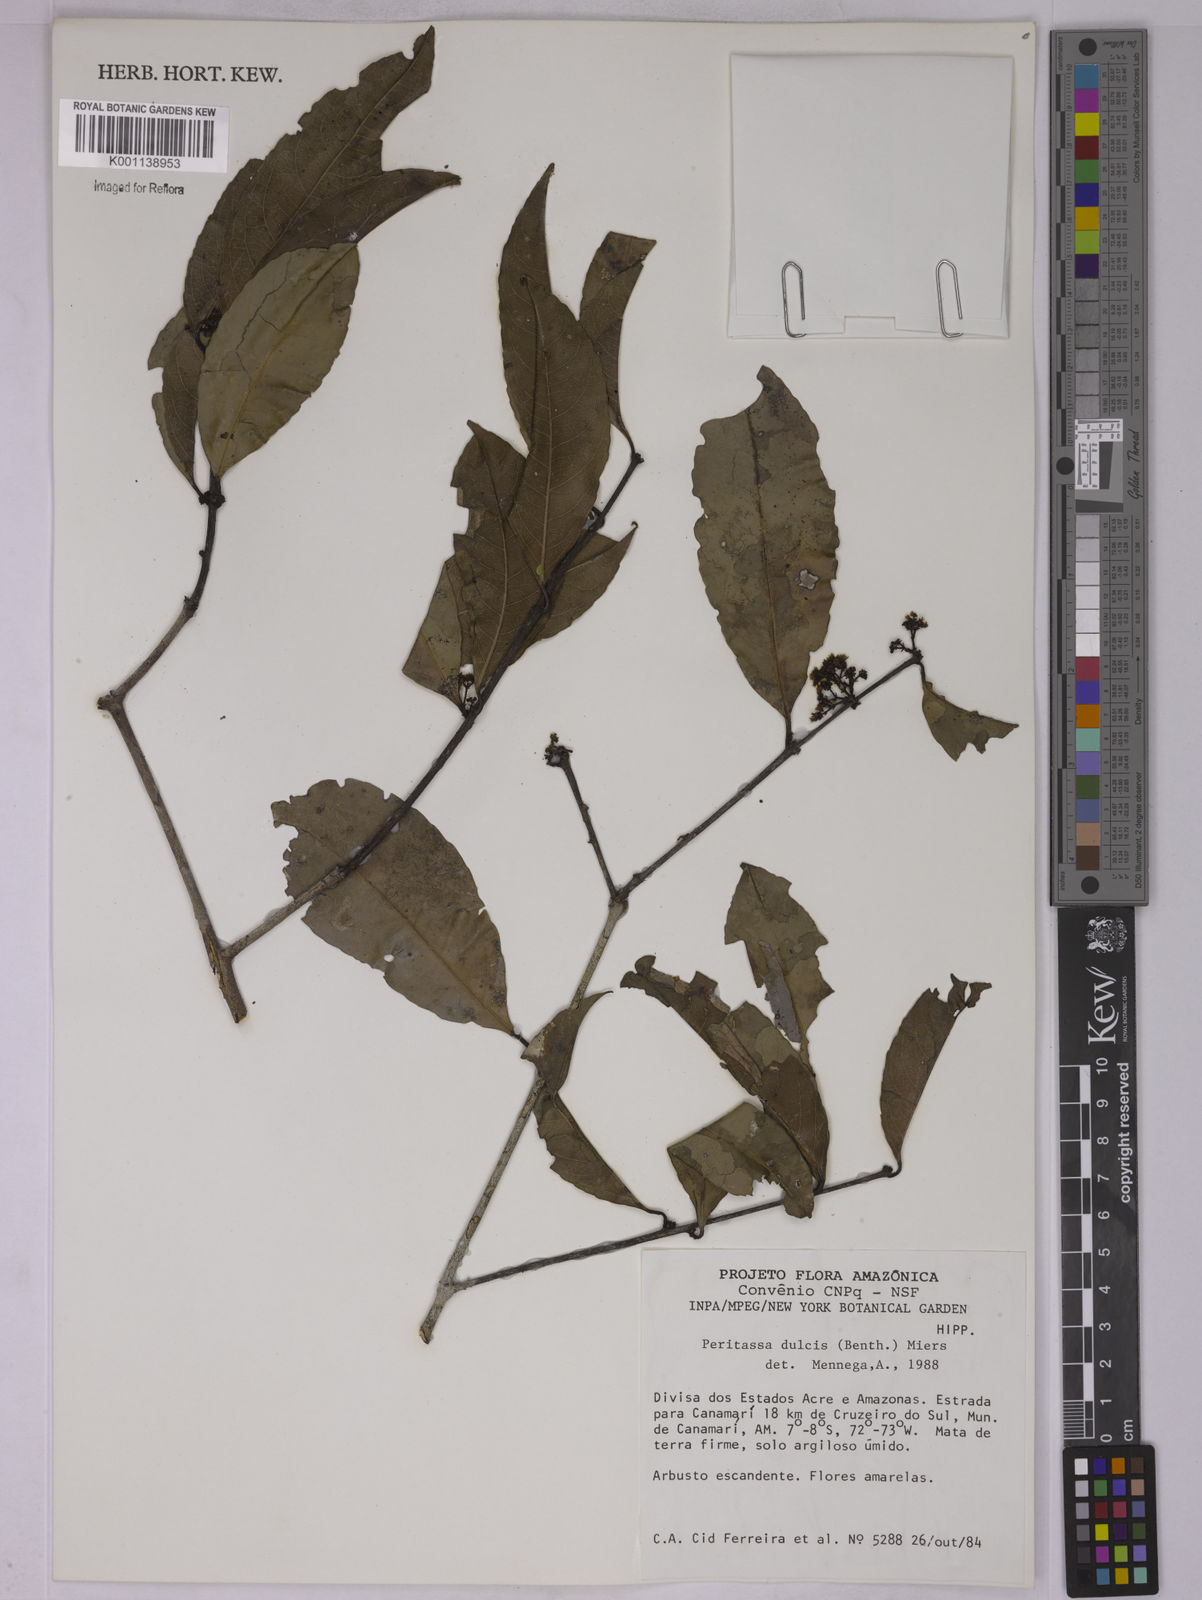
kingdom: Plantae
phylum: Tracheophyta
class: Magnoliopsida
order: Celastrales
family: Celastraceae
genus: Peritassa
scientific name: Peritassa dulcis
